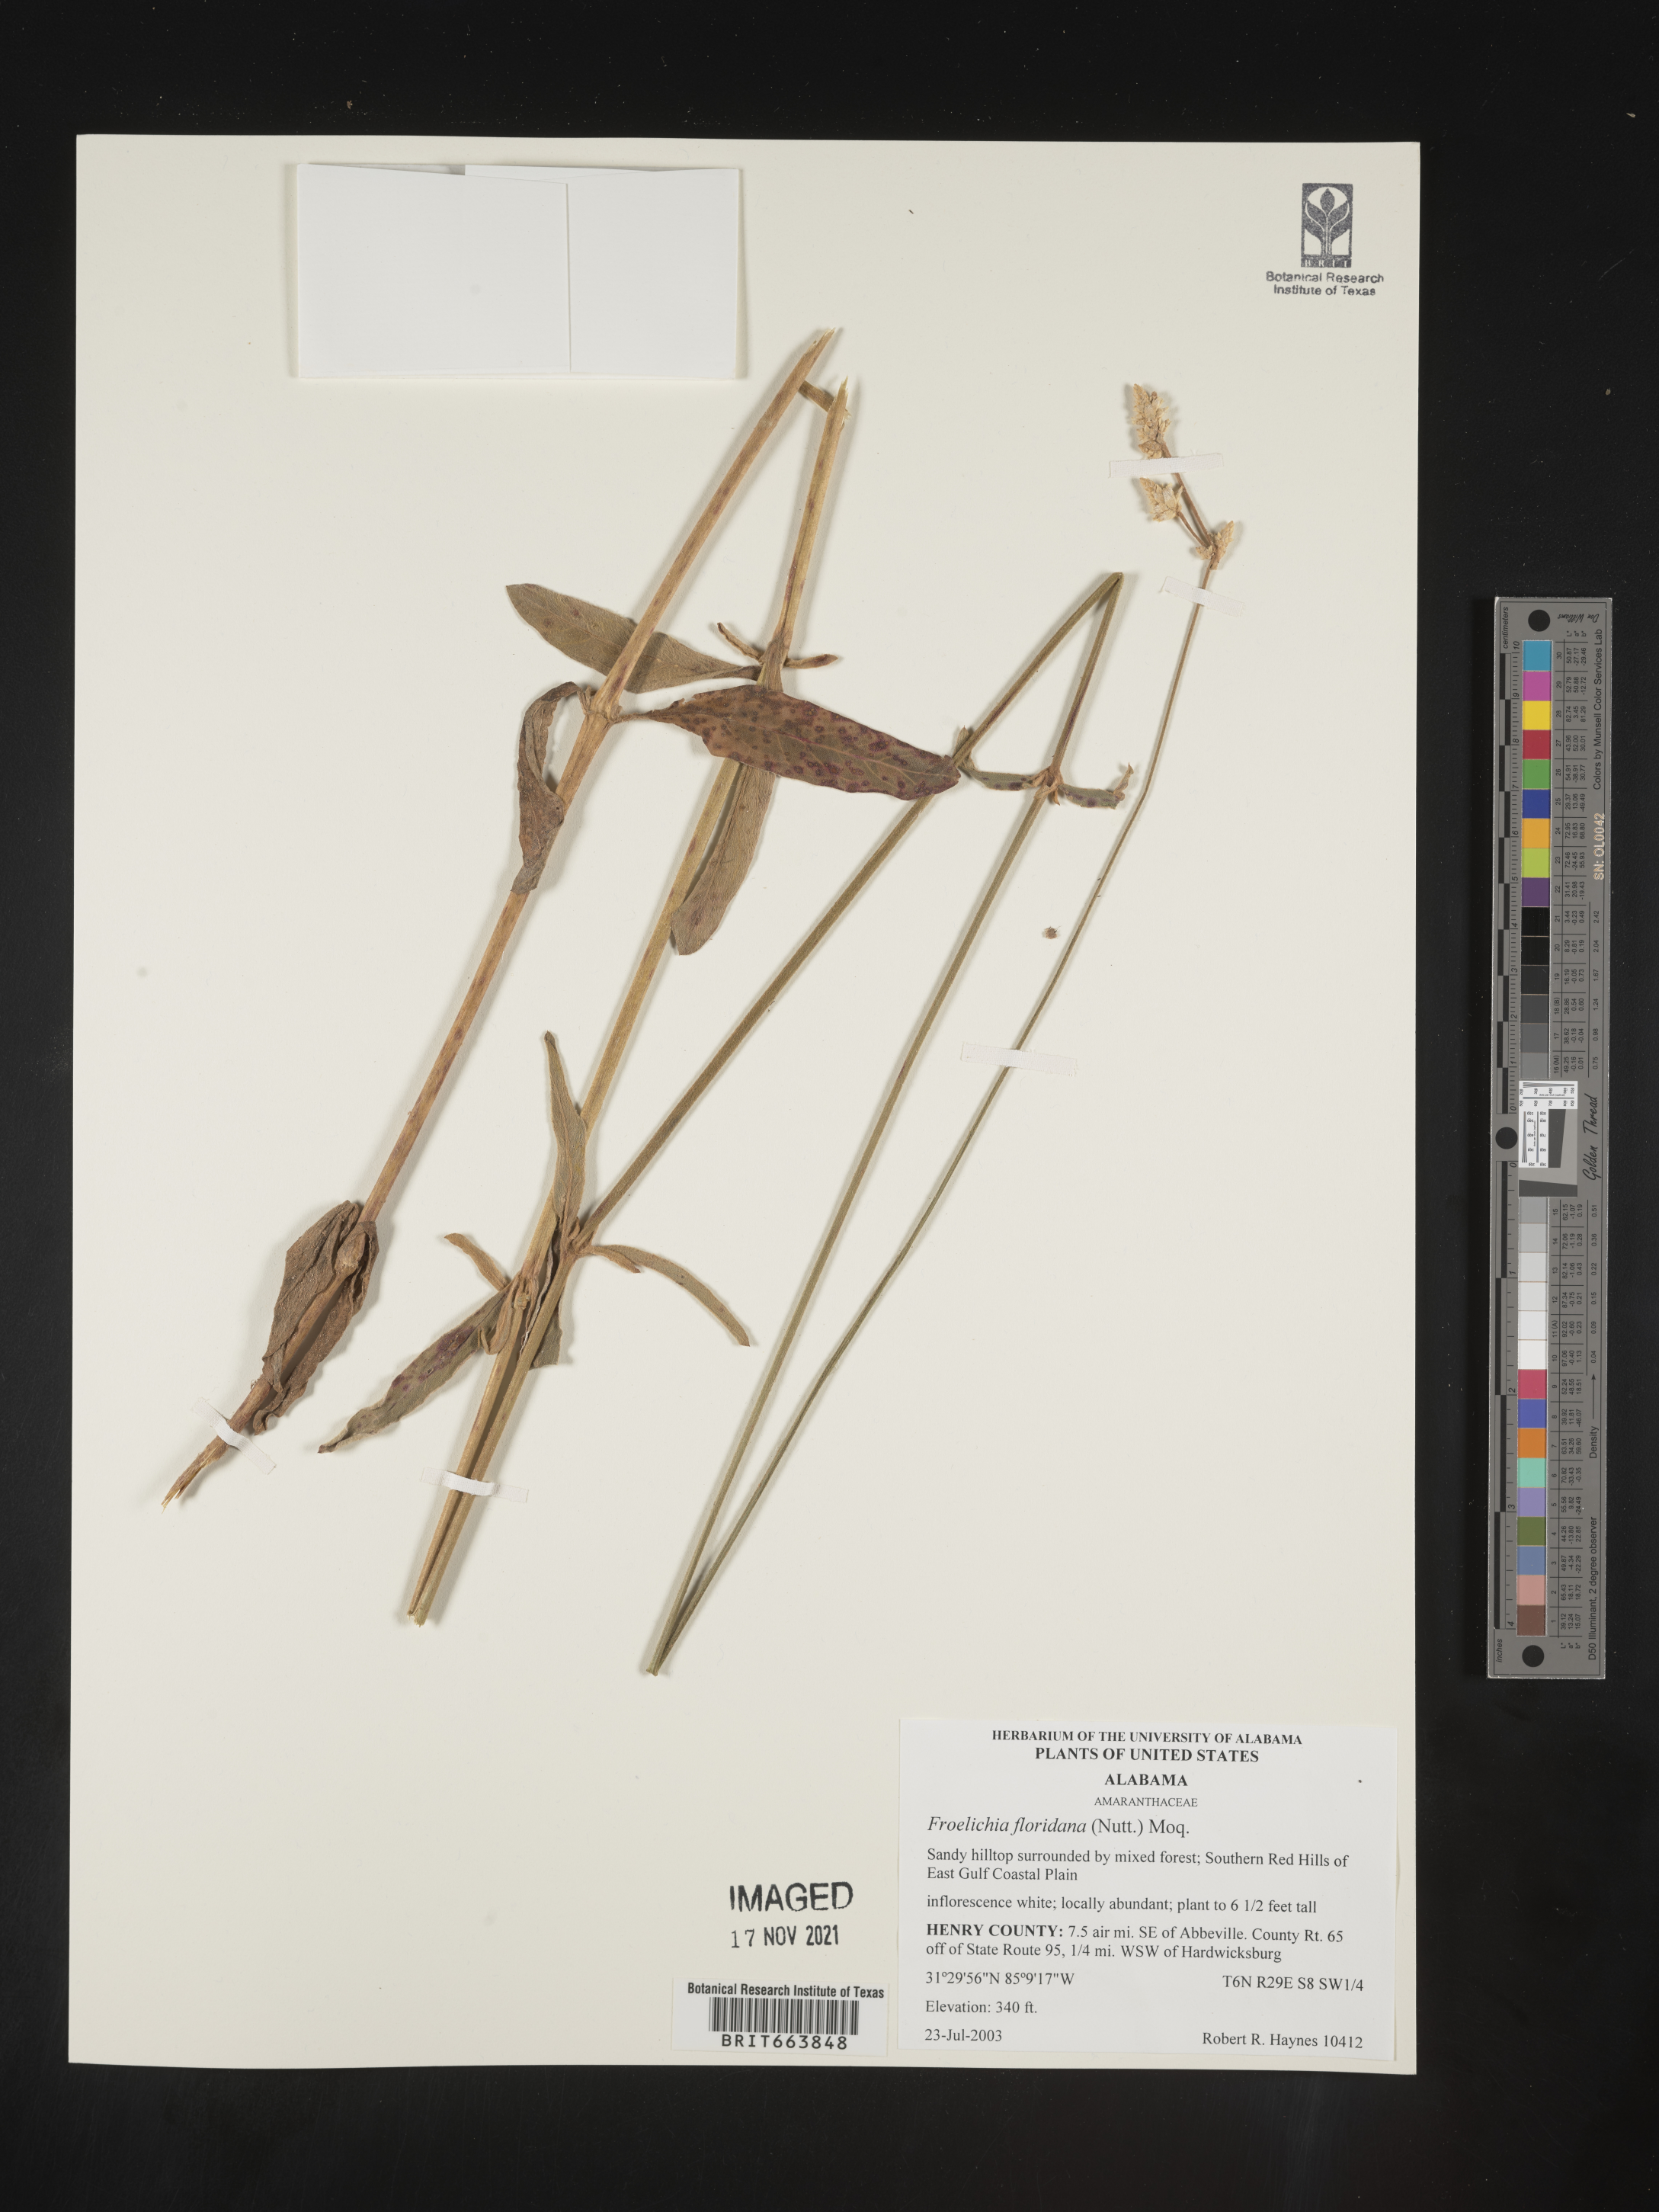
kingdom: Plantae
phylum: Tracheophyta
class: Magnoliopsida
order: Caryophyllales
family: Amaranthaceae
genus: Froelichia
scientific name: Froelichia floridana
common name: Florida snake-cotton
